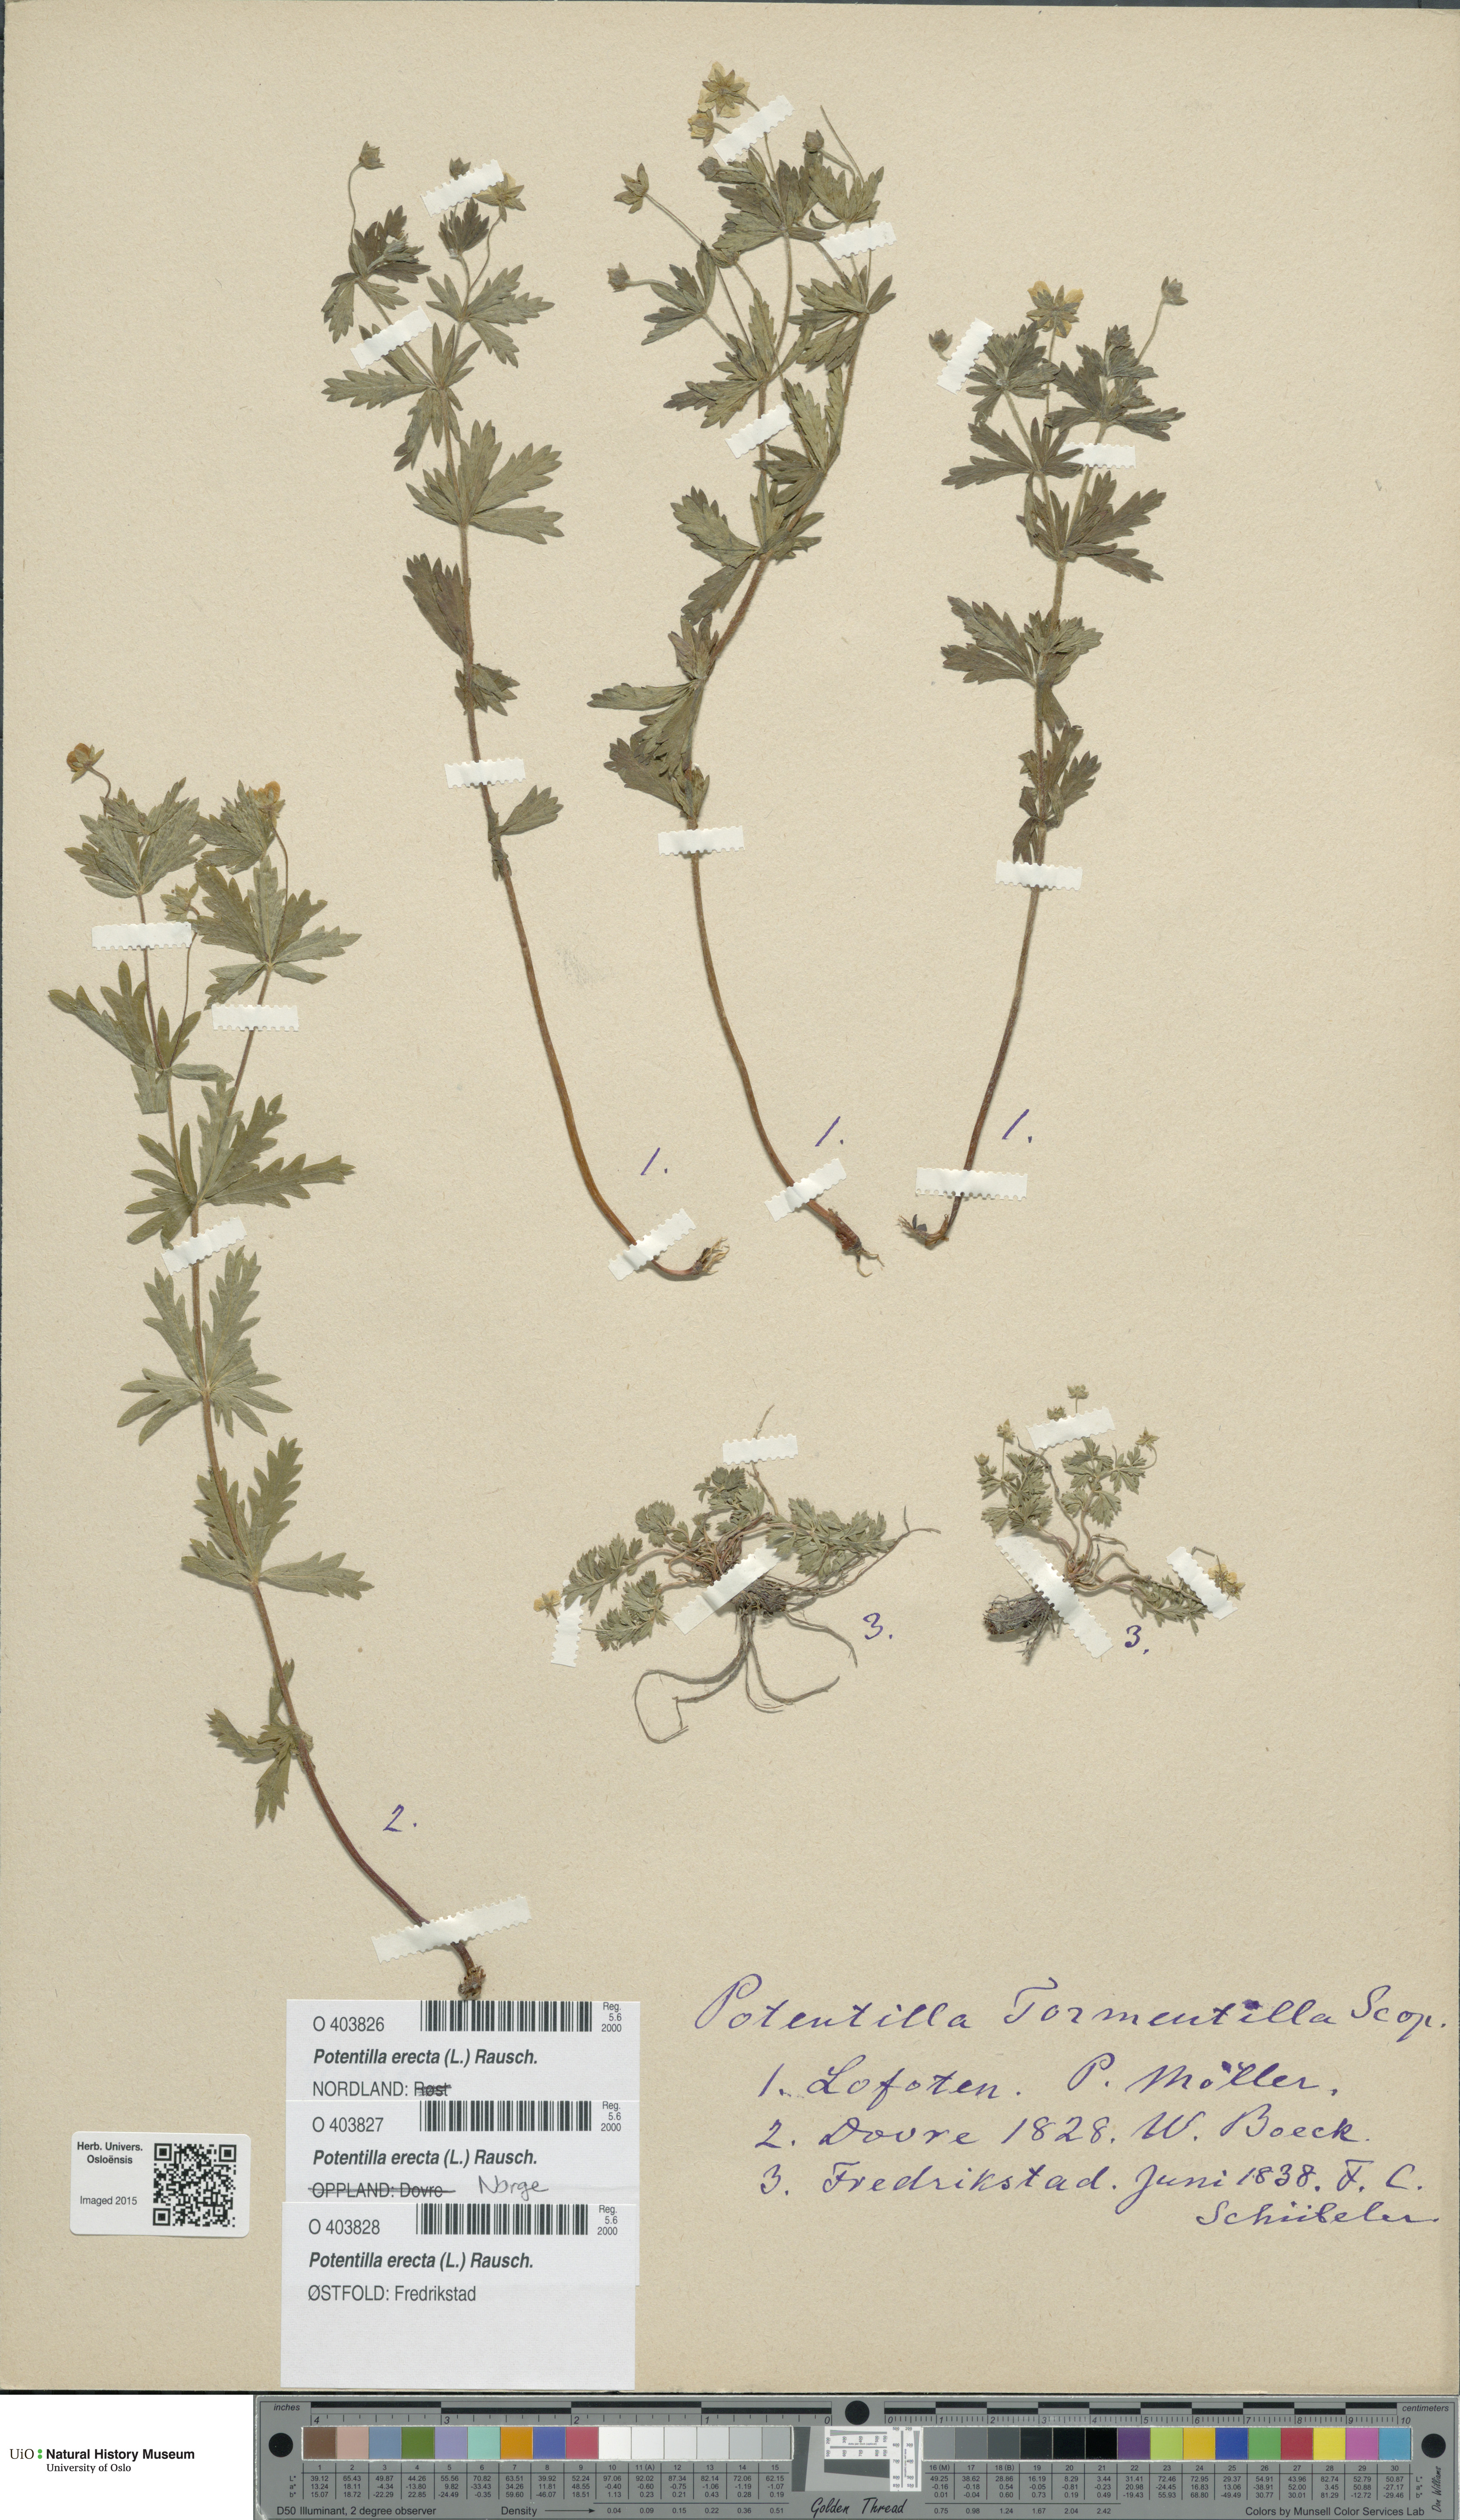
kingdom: Plantae
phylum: Tracheophyta
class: Magnoliopsida
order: Rosales
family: Rosaceae
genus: Potentilla
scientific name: Potentilla erecta
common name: Tormentil
